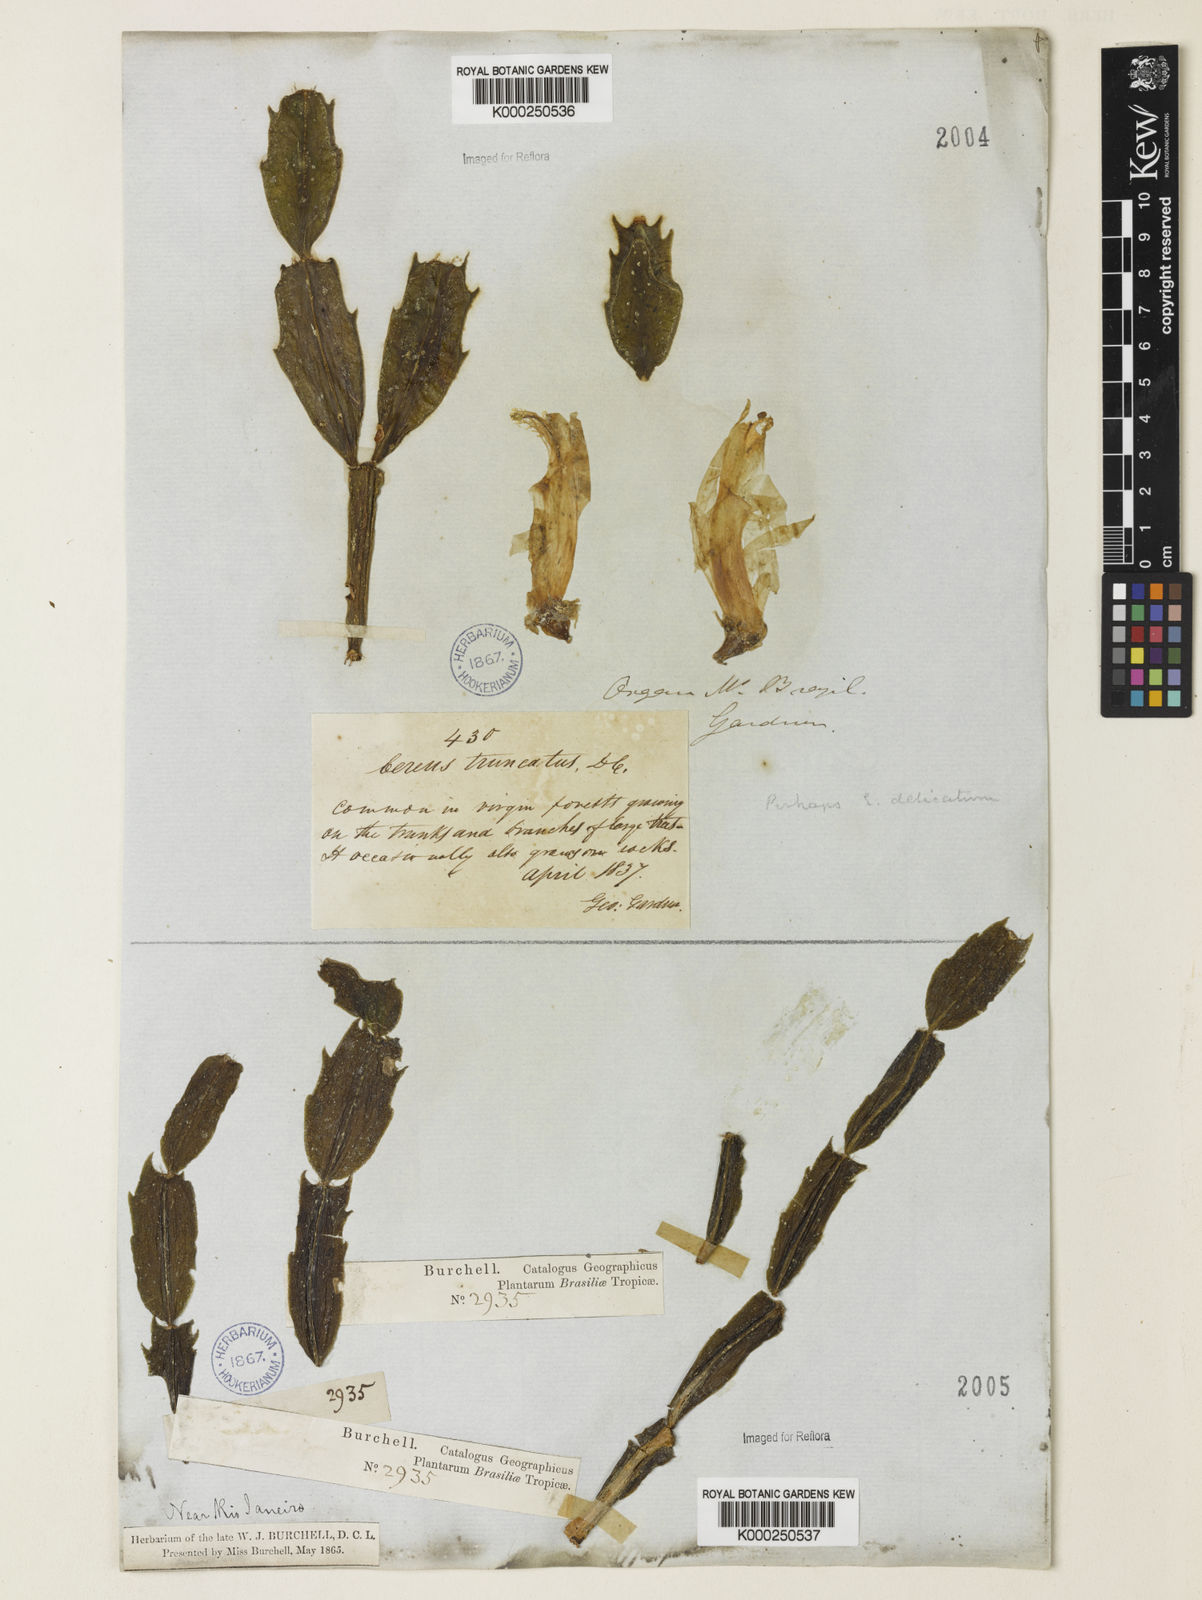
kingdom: Plantae
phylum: Tracheophyta
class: Magnoliopsida
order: Caryophyllales
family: Cactaceae
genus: Schlumbergera
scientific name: Schlumbergera truncata
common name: Thanksgiving cactus
